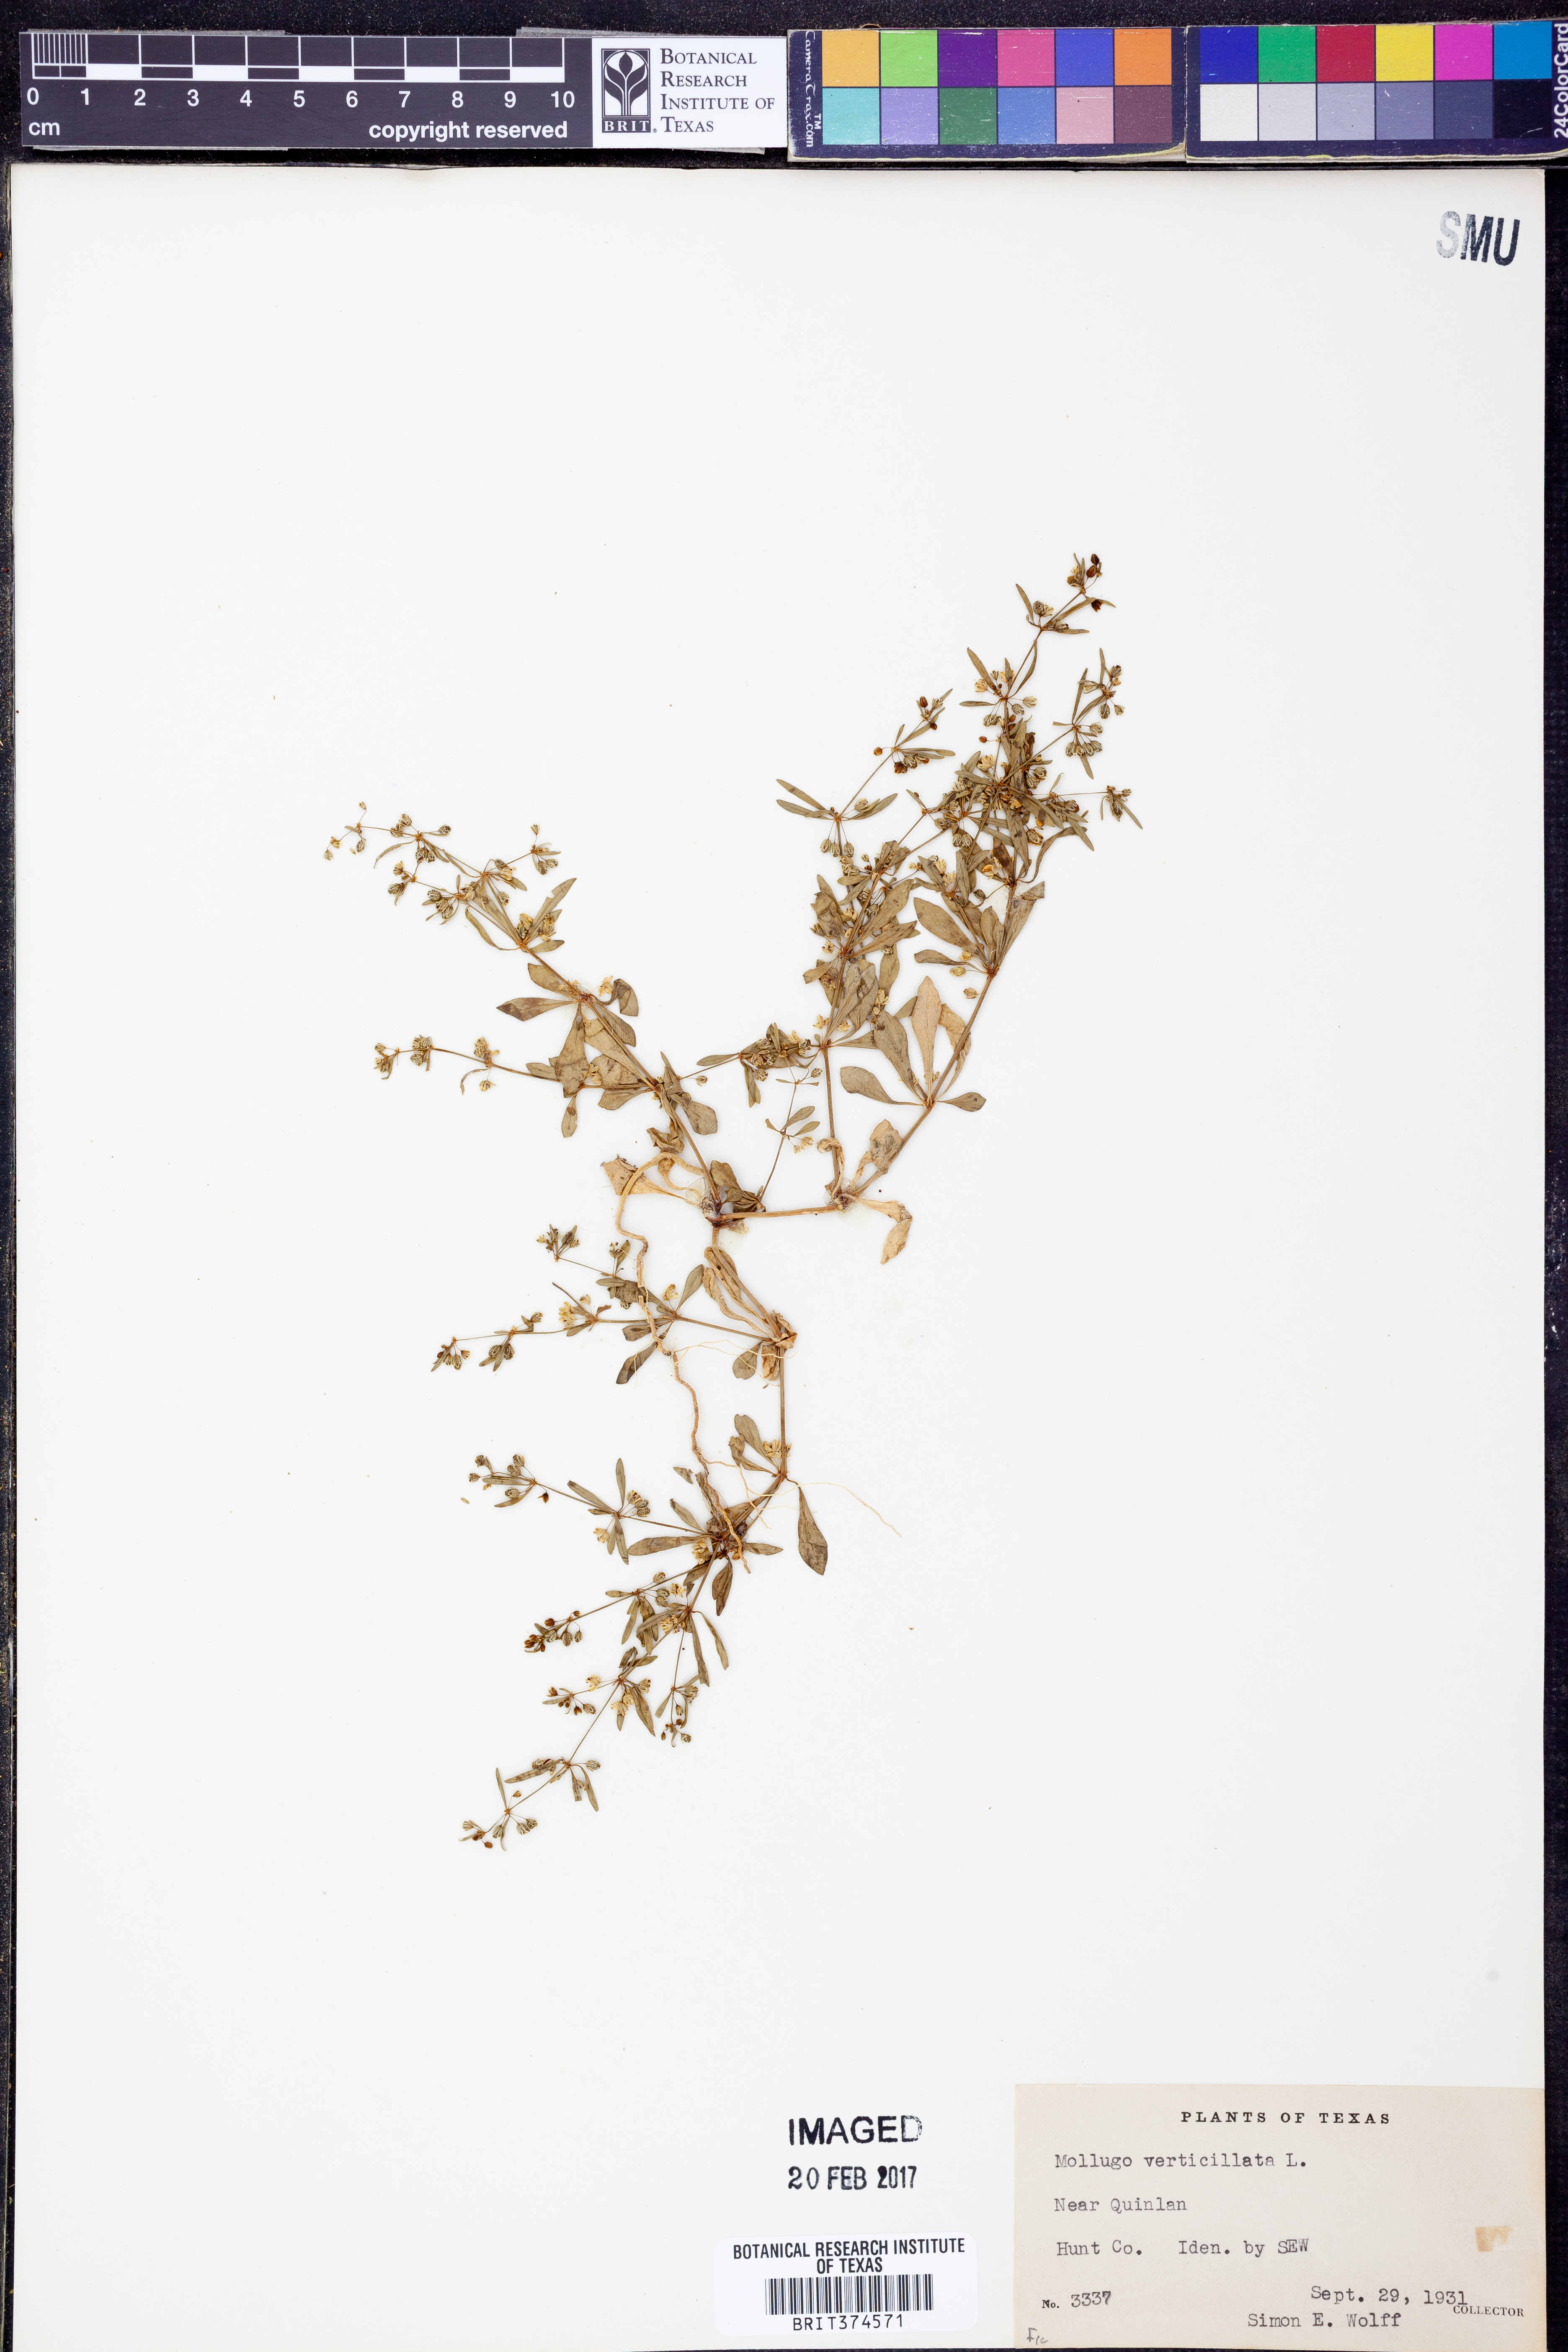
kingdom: Plantae
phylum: Tracheophyta
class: Magnoliopsida
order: Caryophyllales
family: Molluginaceae
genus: Mollugo
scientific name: Mollugo verticillata
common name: Green carpetweed
